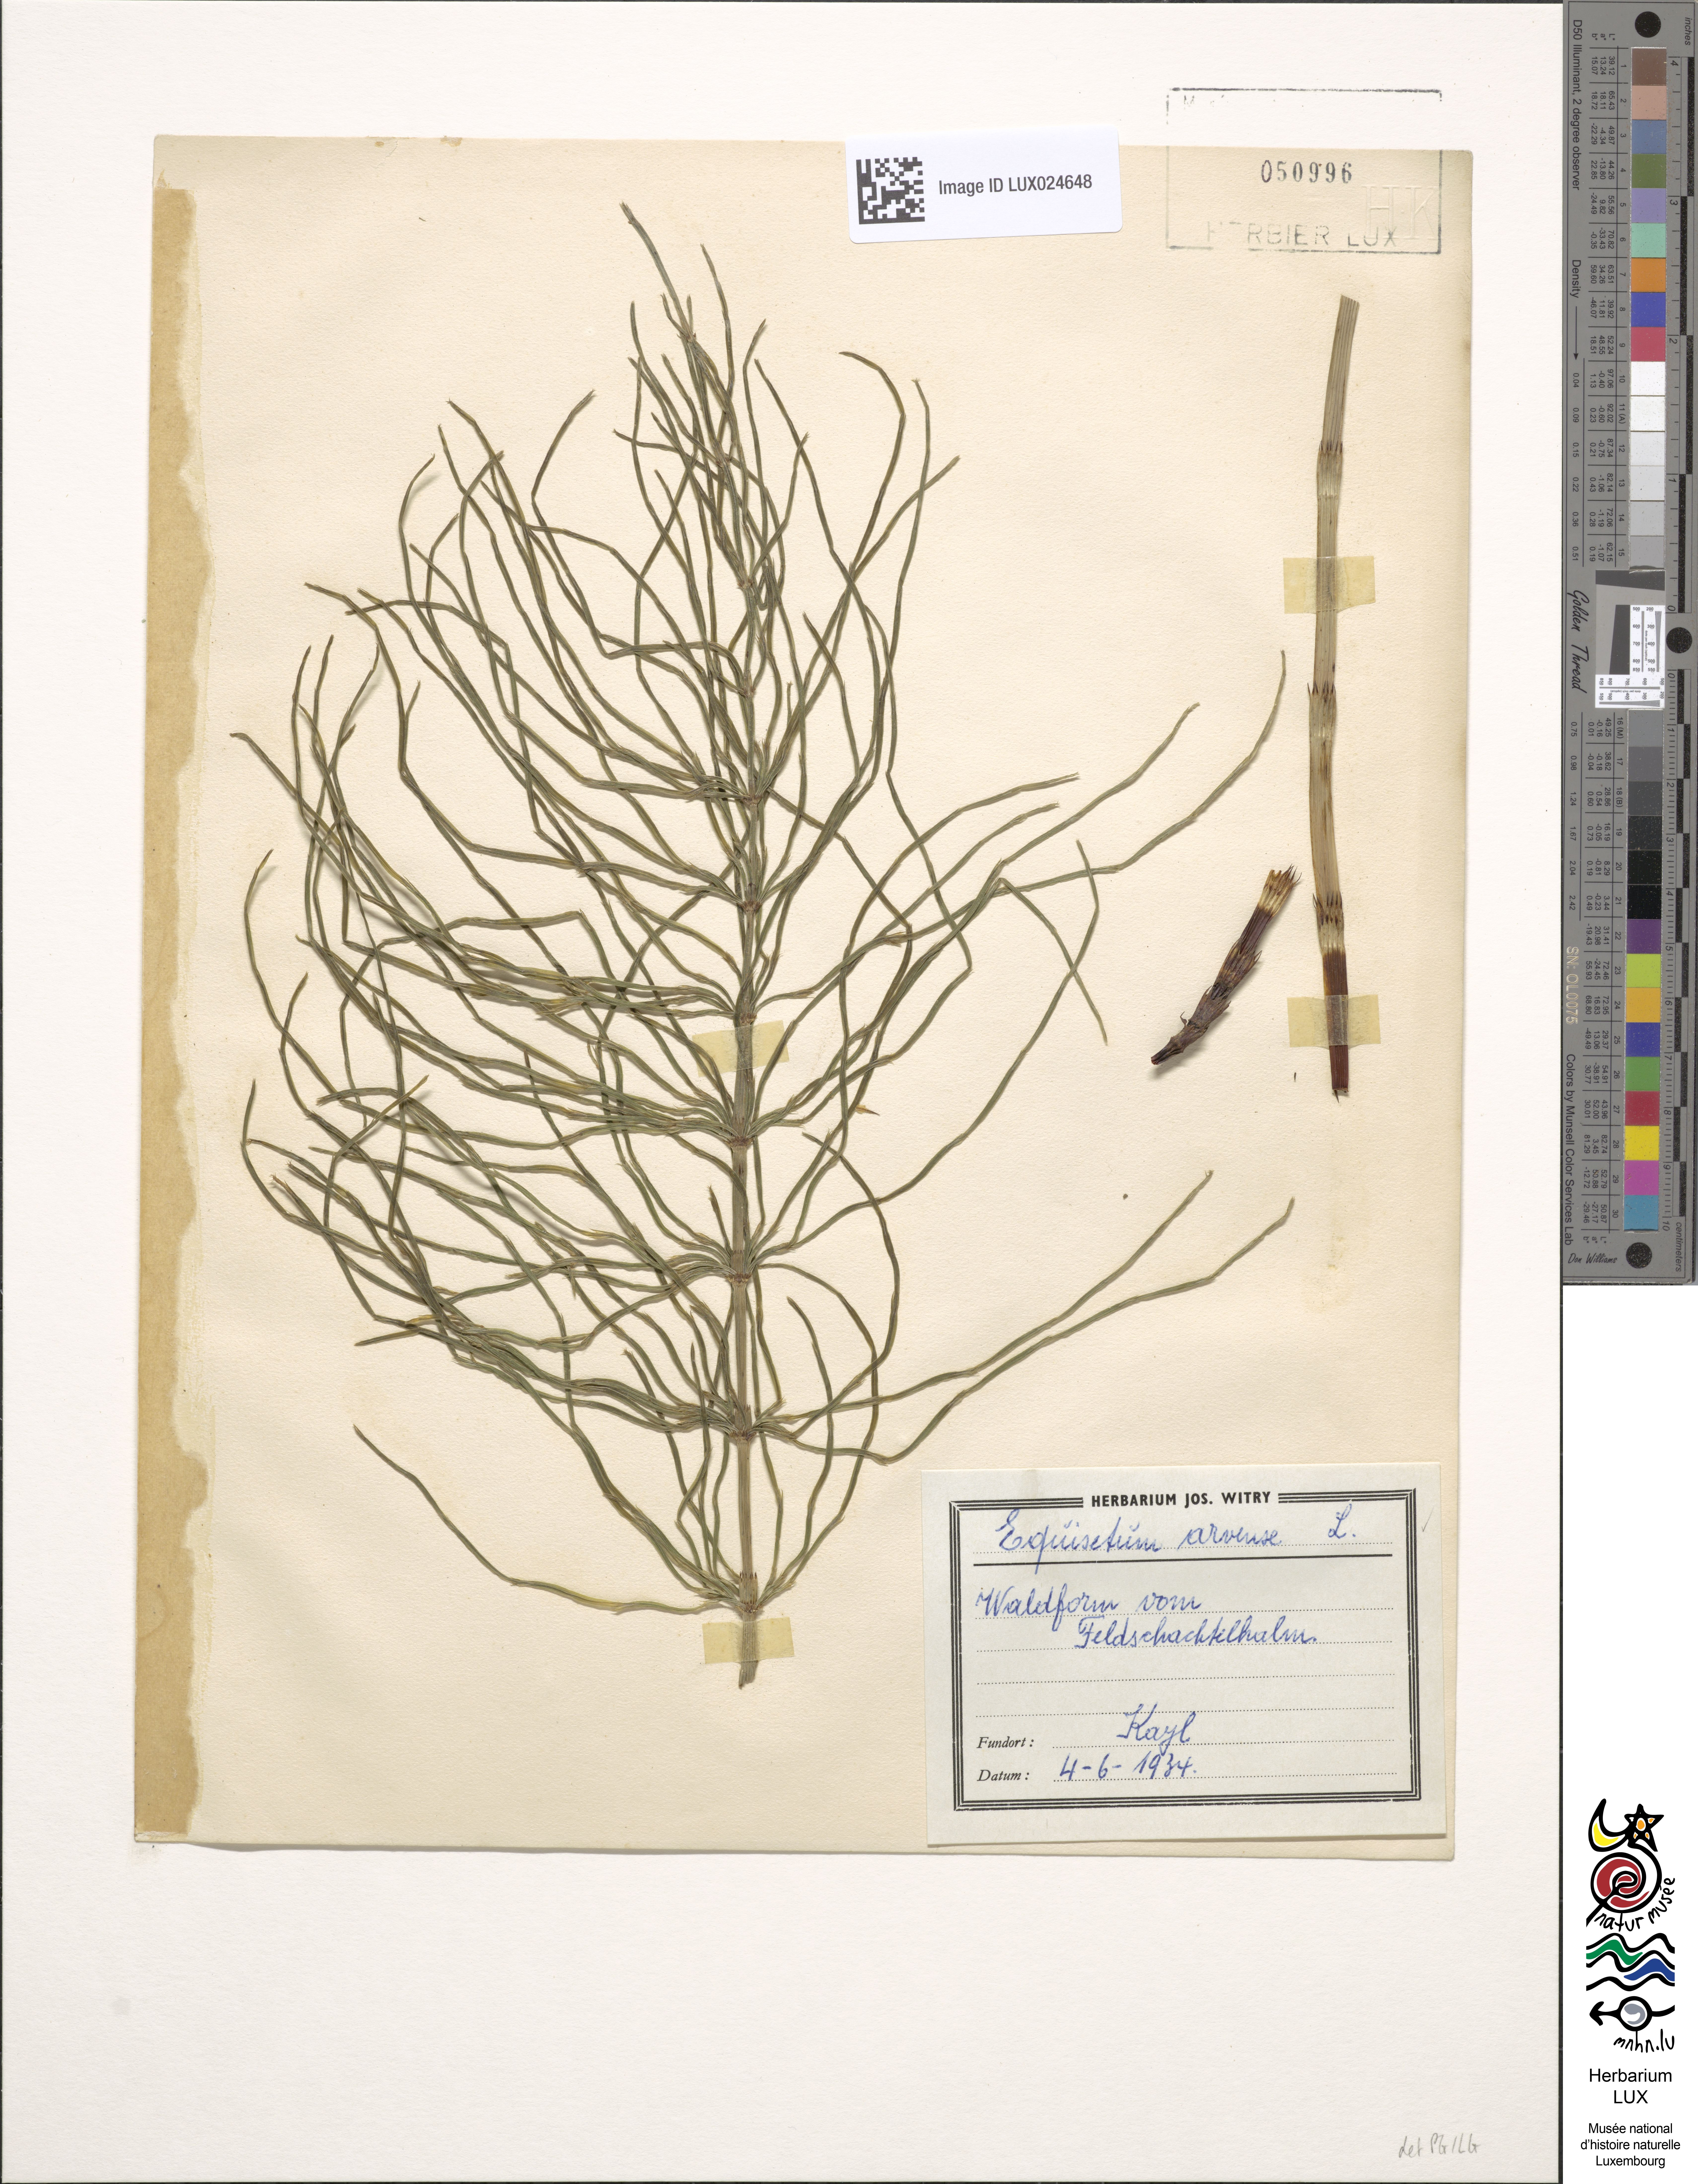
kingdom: Plantae
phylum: Tracheophyta
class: Polypodiopsida
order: Equisetales
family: Equisetaceae
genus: Equisetum
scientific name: Equisetum arvense
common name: Field horsetail
